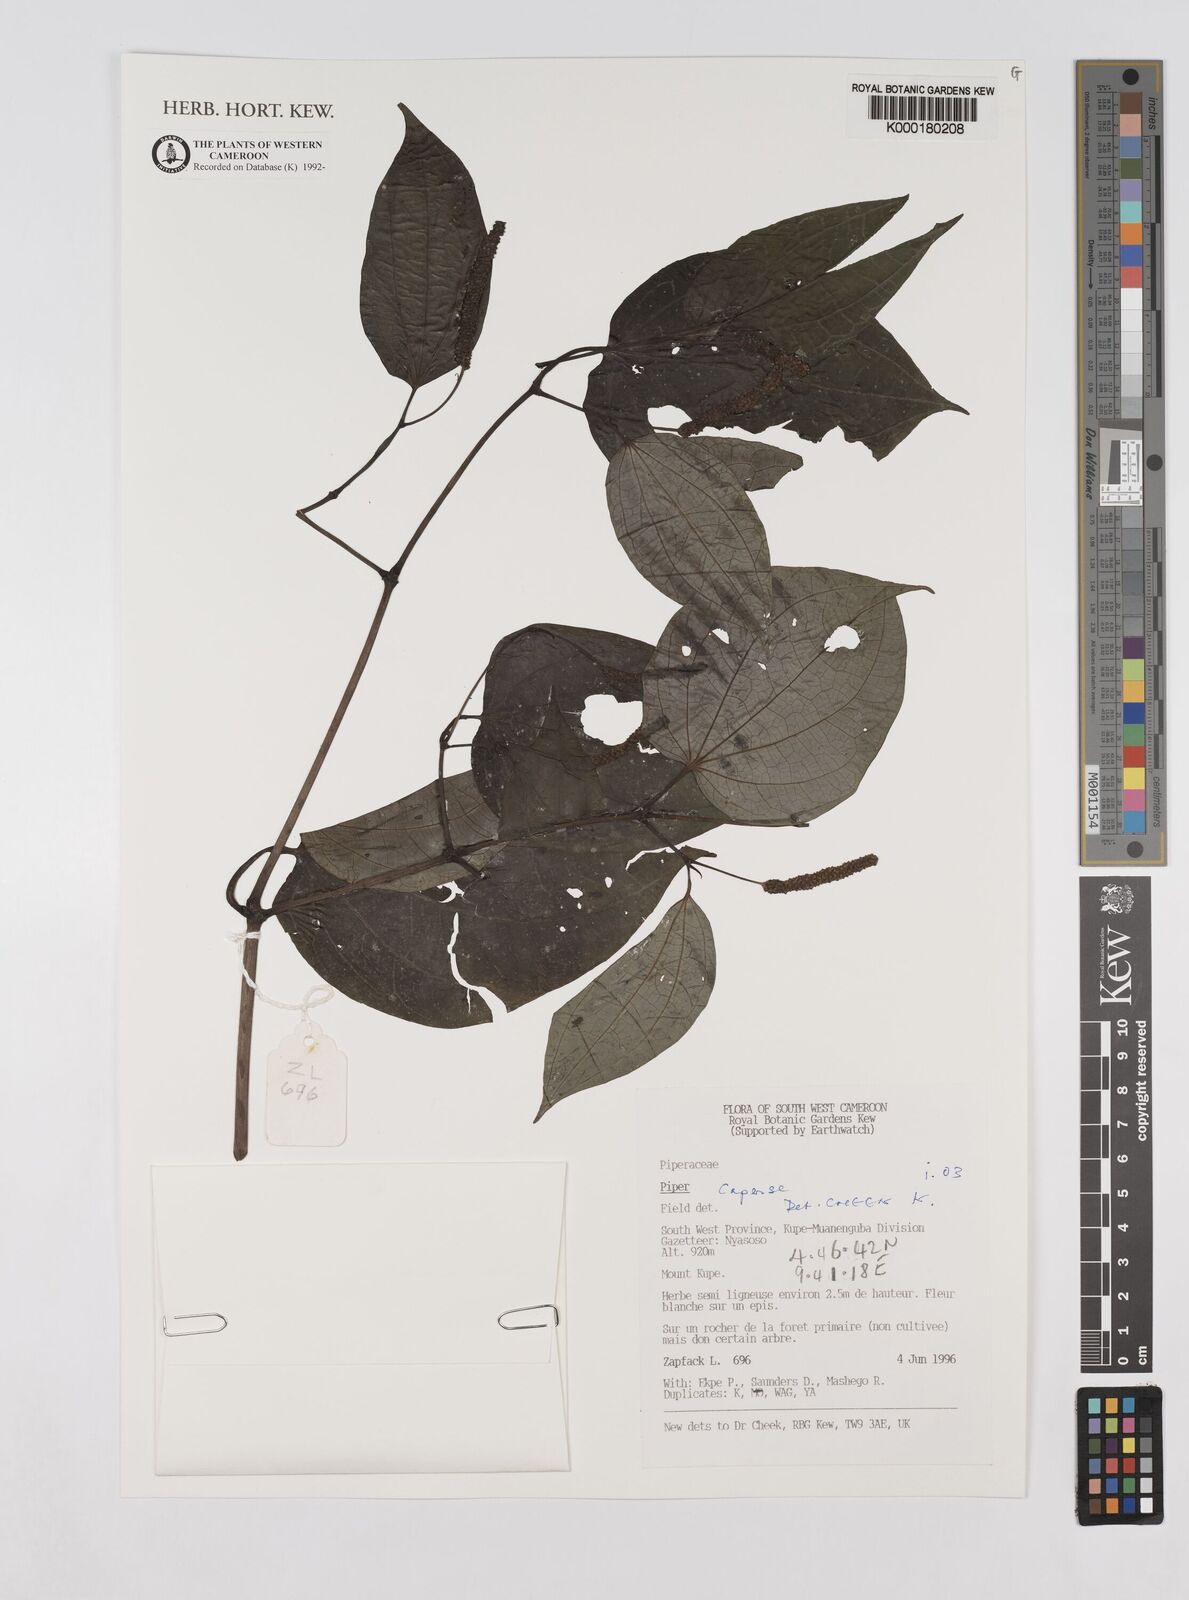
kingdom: Plantae
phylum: Tracheophyta
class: Magnoliopsida
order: Piperales
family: Piperaceae
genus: Piper
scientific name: Piper capense
